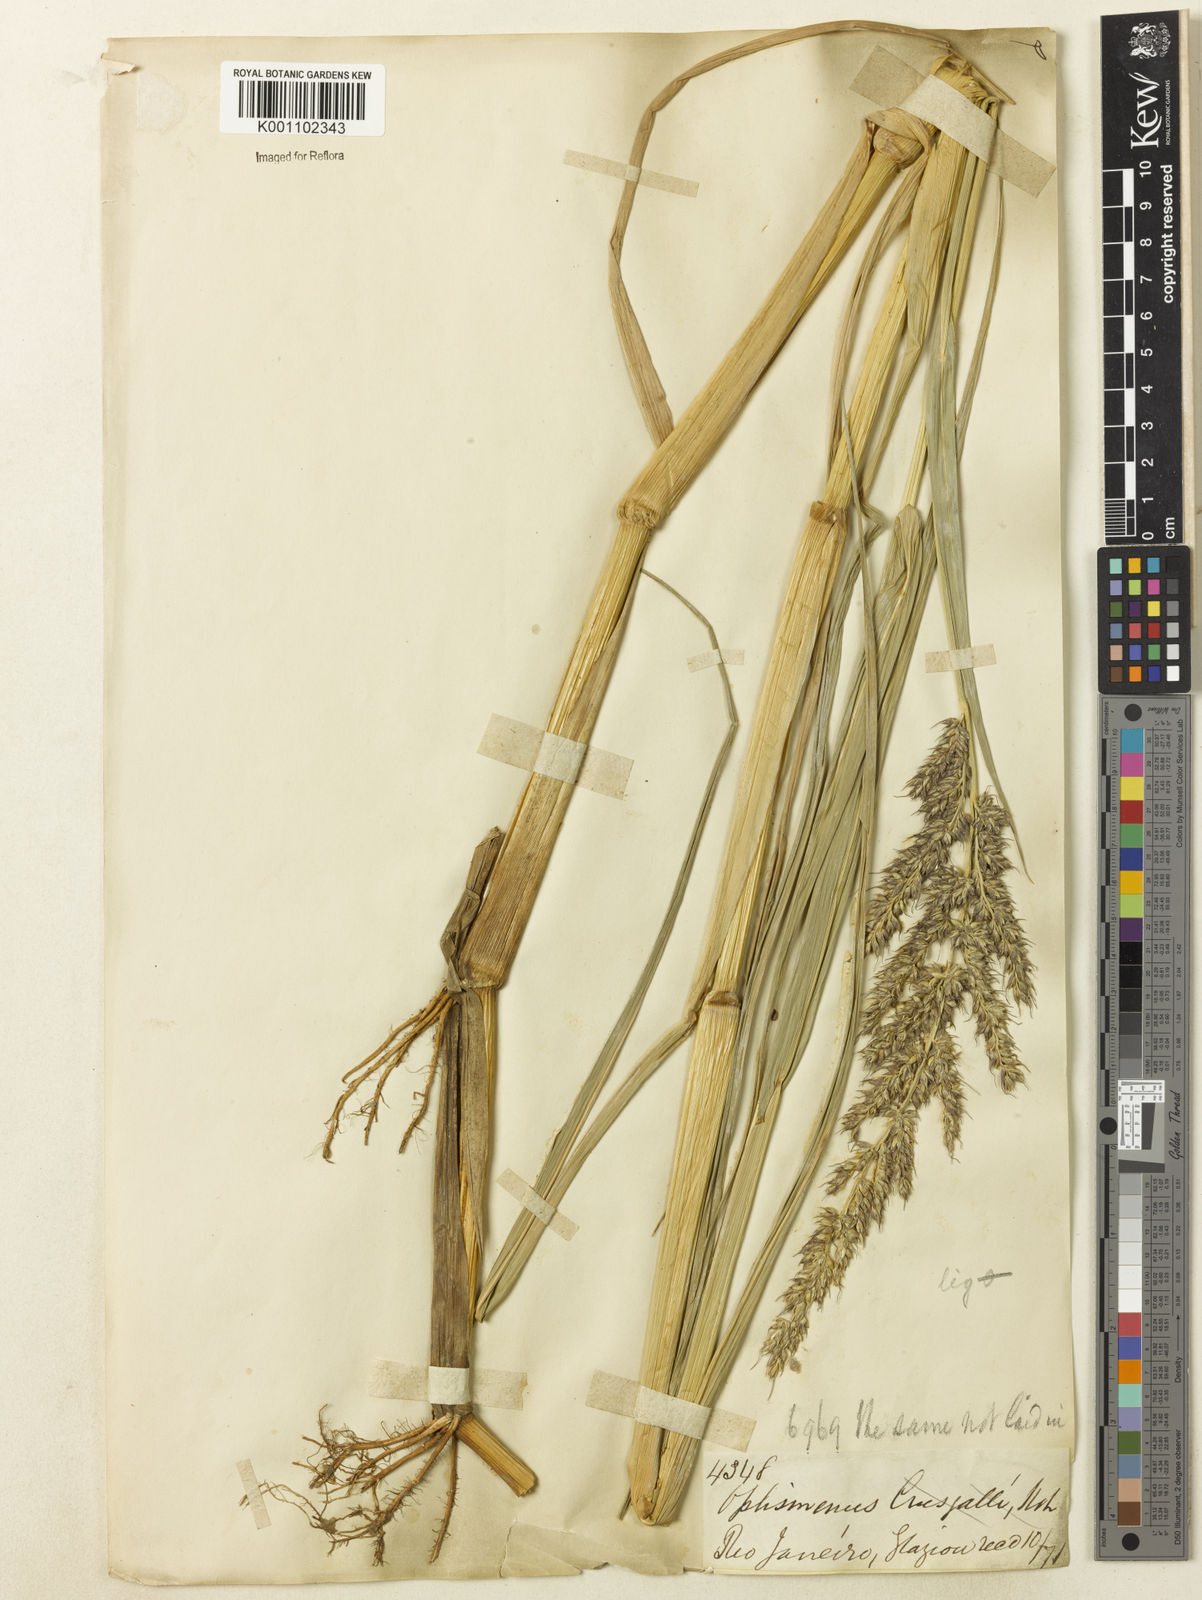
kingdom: Plantae
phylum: Tracheophyta
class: Liliopsida
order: Poales
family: Poaceae
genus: Echinochloa
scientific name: Echinochloa polystachya
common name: Creeping river grass
